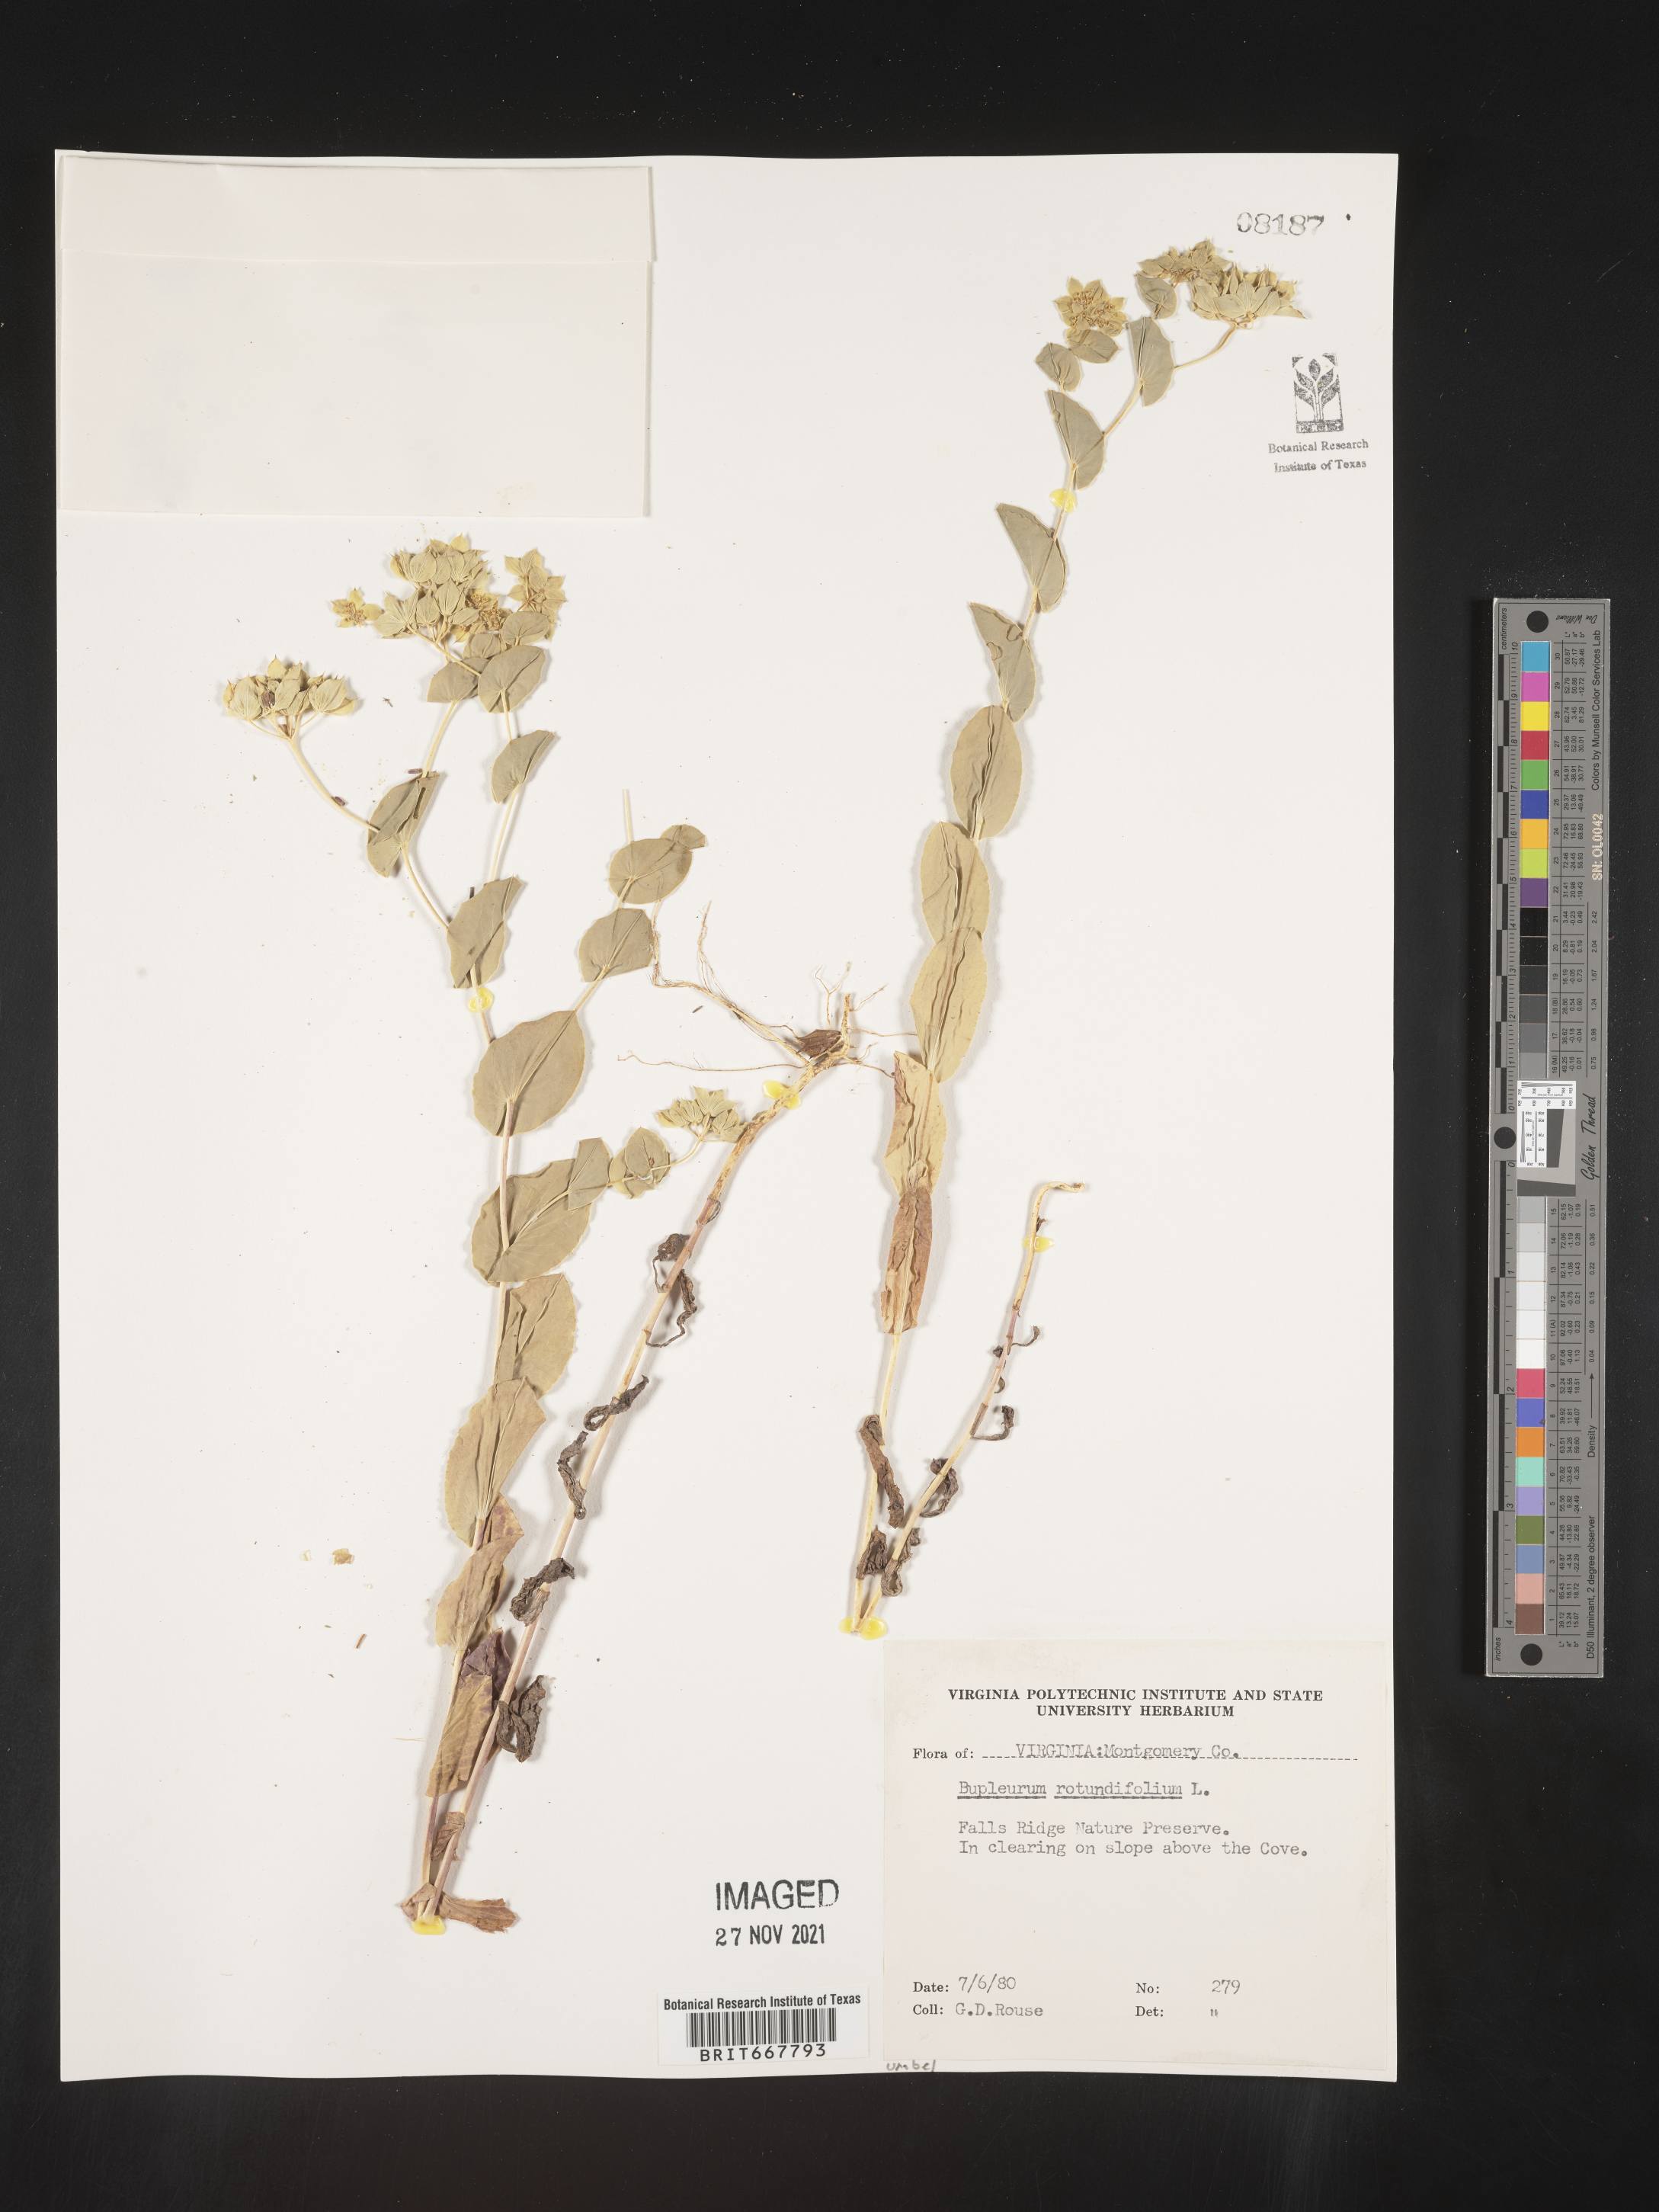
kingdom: Plantae
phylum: Tracheophyta
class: Magnoliopsida
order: Apiales
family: Apiaceae
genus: Bupleurum
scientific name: Bupleurum
